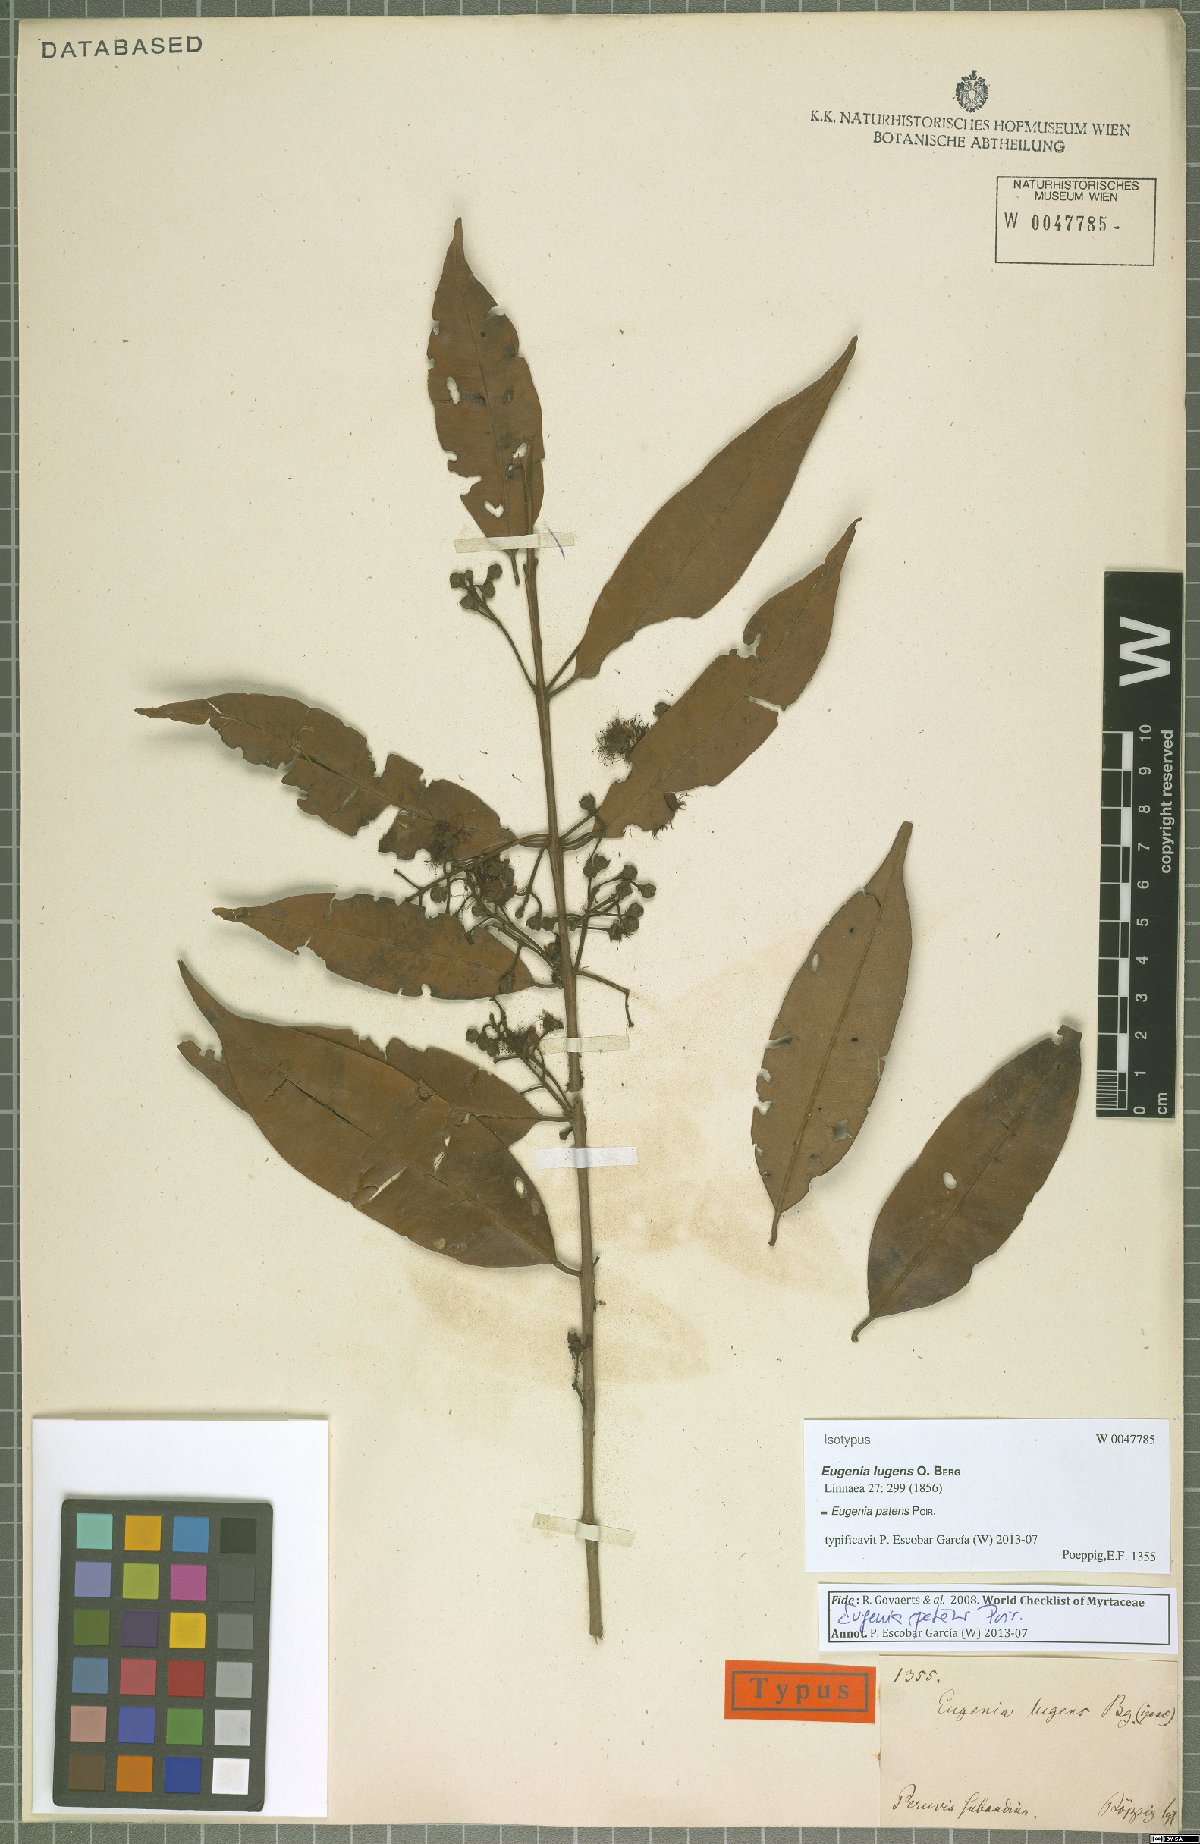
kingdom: Plantae
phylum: Tracheophyta
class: Magnoliopsida
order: Myrtales
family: Myrtaceae
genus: Eugenia
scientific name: Eugenia patens
